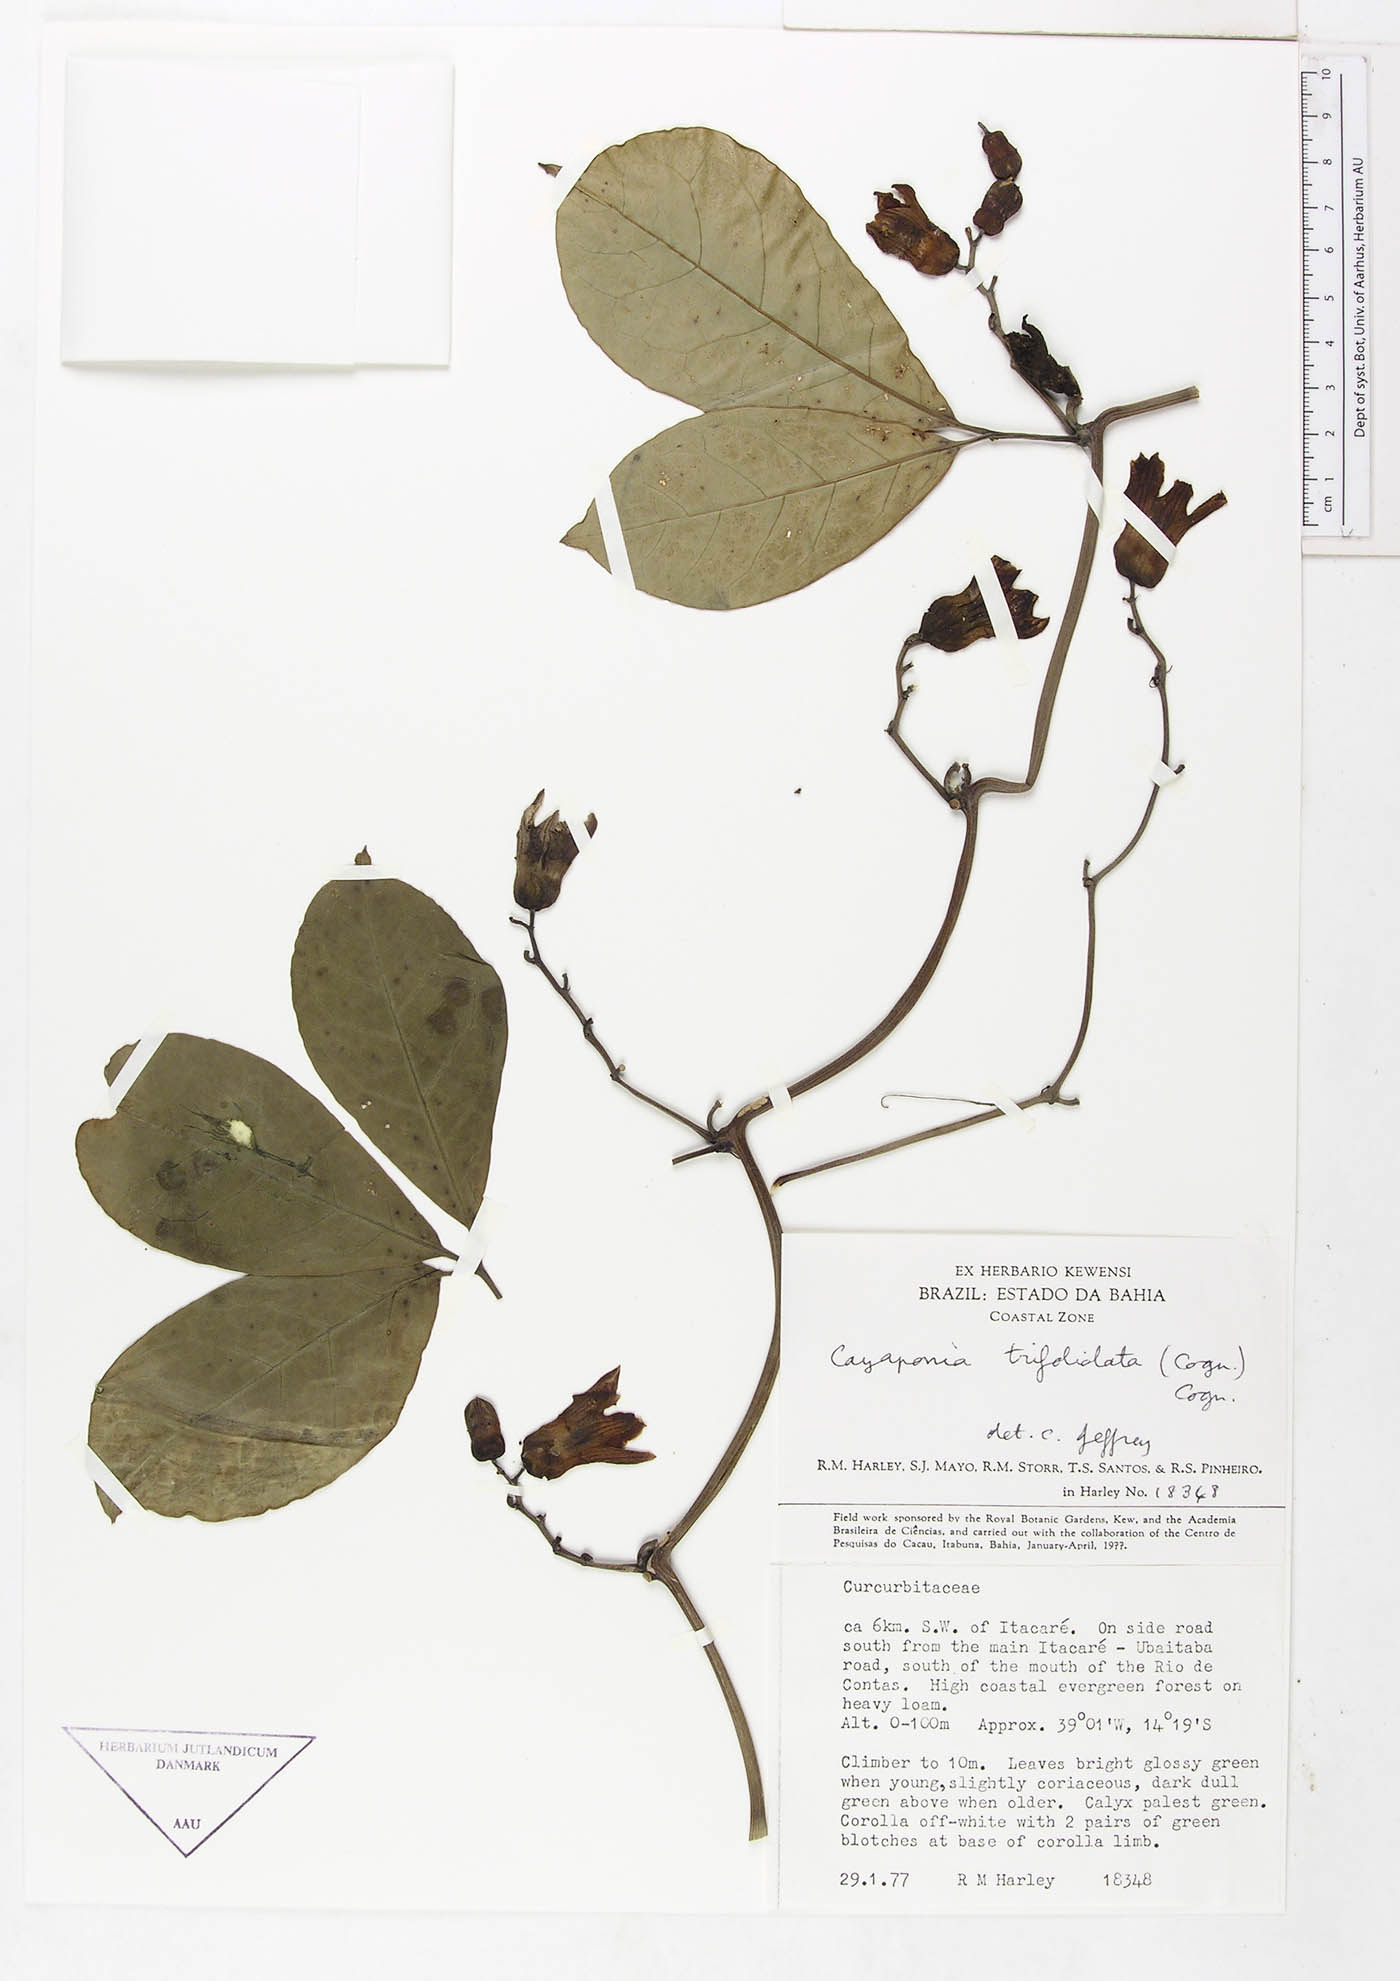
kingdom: Plantae
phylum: Tracheophyta
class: Magnoliopsida
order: Cucurbitales
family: Cucurbitaceae
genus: Cayaponia
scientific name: Cayaponia petiolulata
